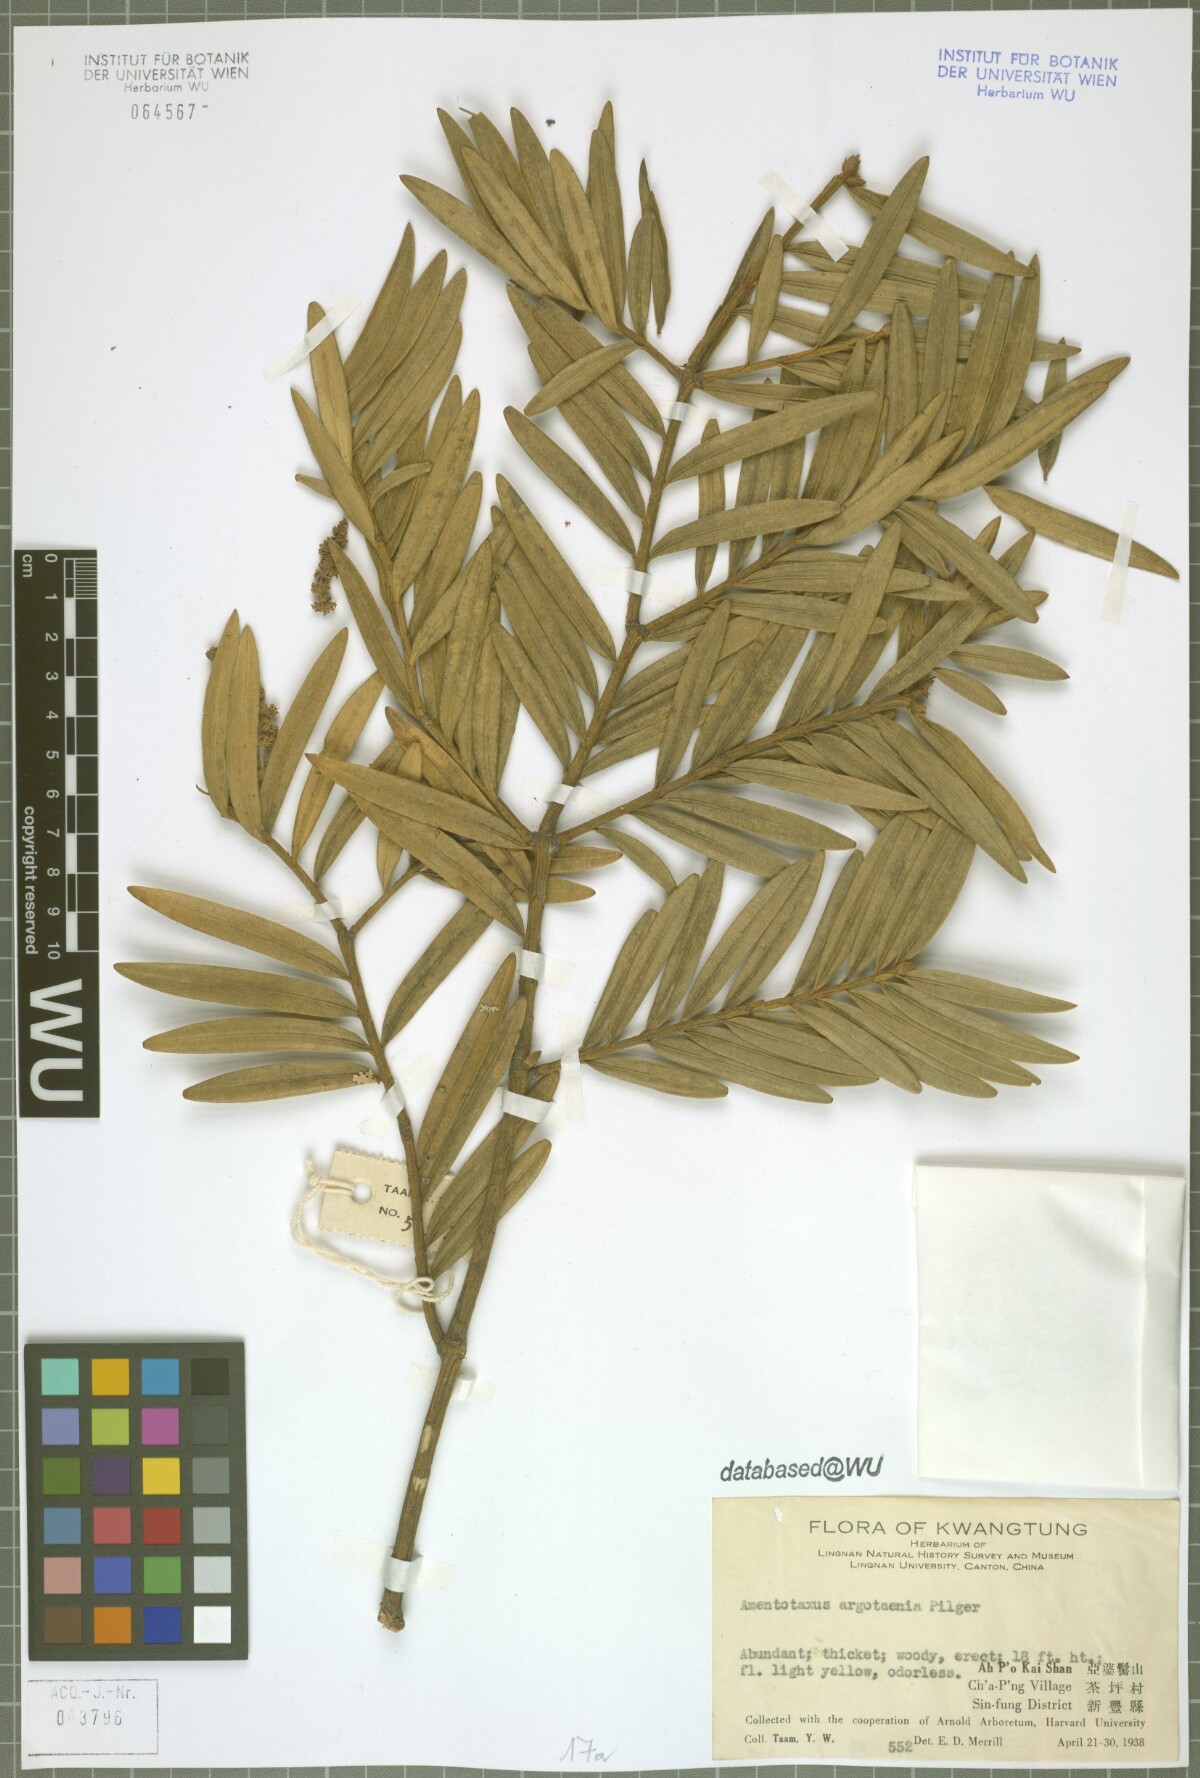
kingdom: Plantae
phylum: Tracheophyta
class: Pinopsida
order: Pinales
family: Taxaceae
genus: Amentotaxus
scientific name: Amentotaxus argotaenia
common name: Catkin yew
